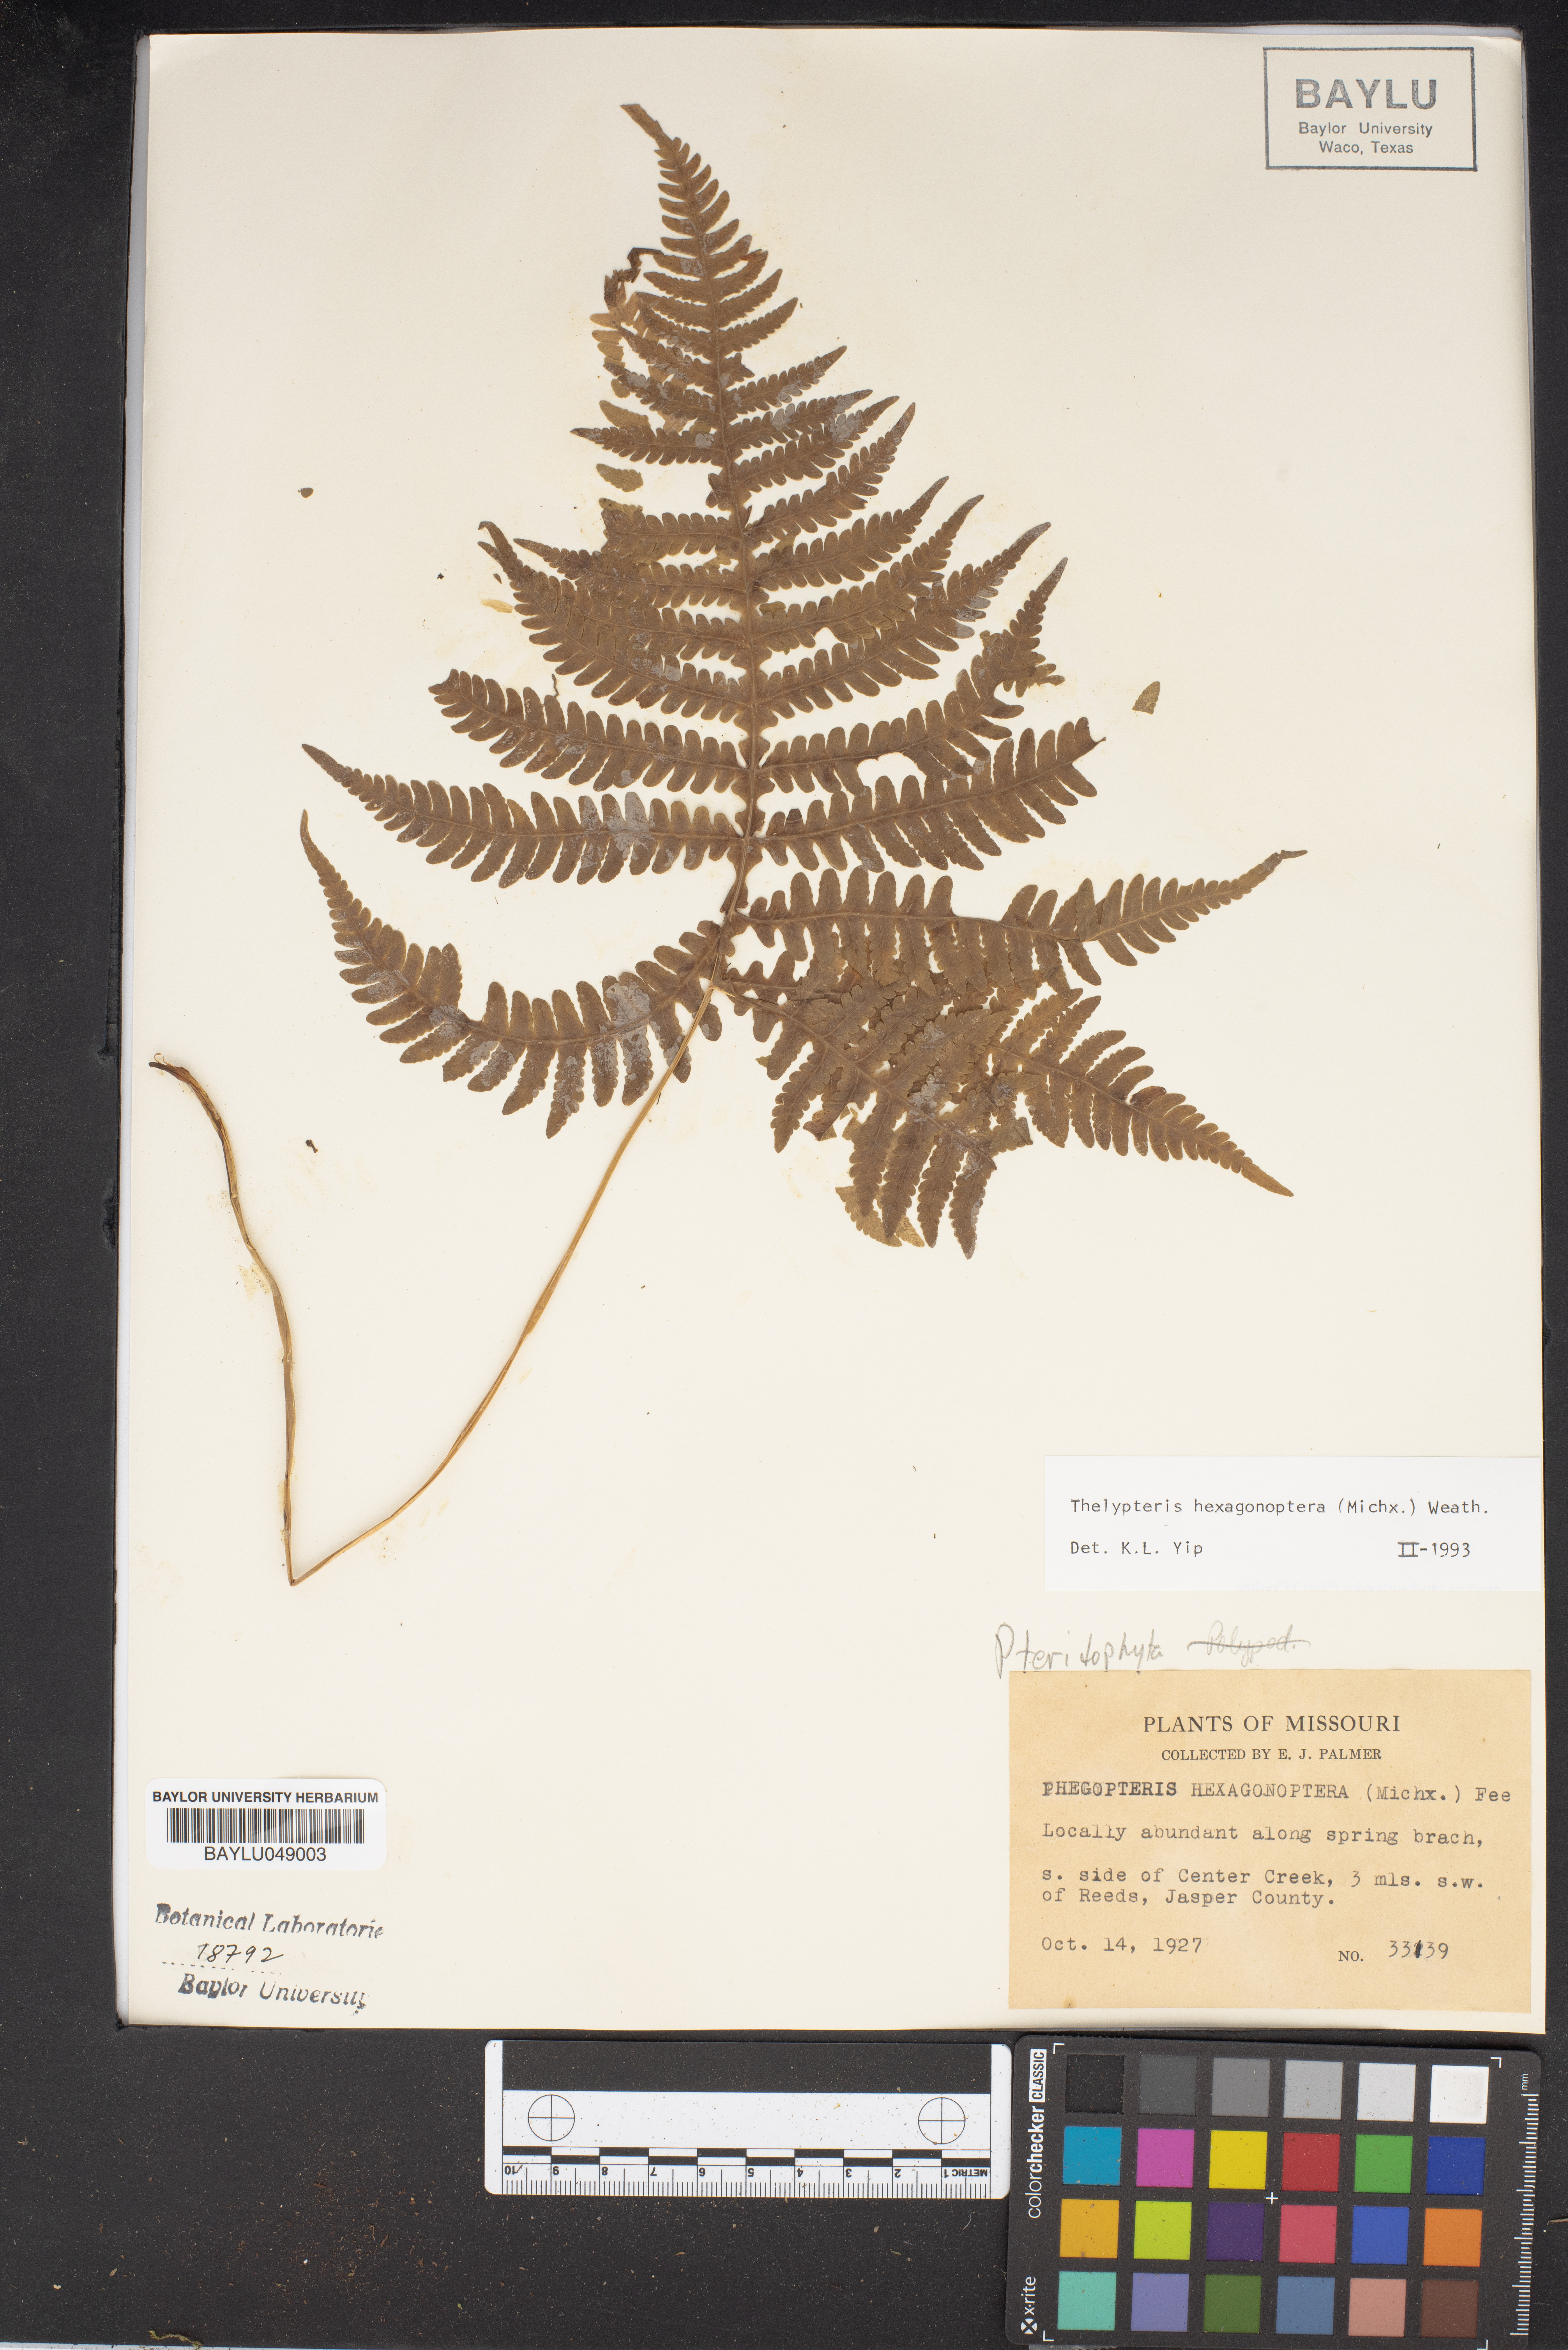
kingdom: Plantae
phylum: Tracheophyta
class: Polypodiopsida
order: Polypodiales
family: Thelypteridaceae
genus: Phegopteris
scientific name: Phegopteris hexagonoptera
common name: Broad beech fern
